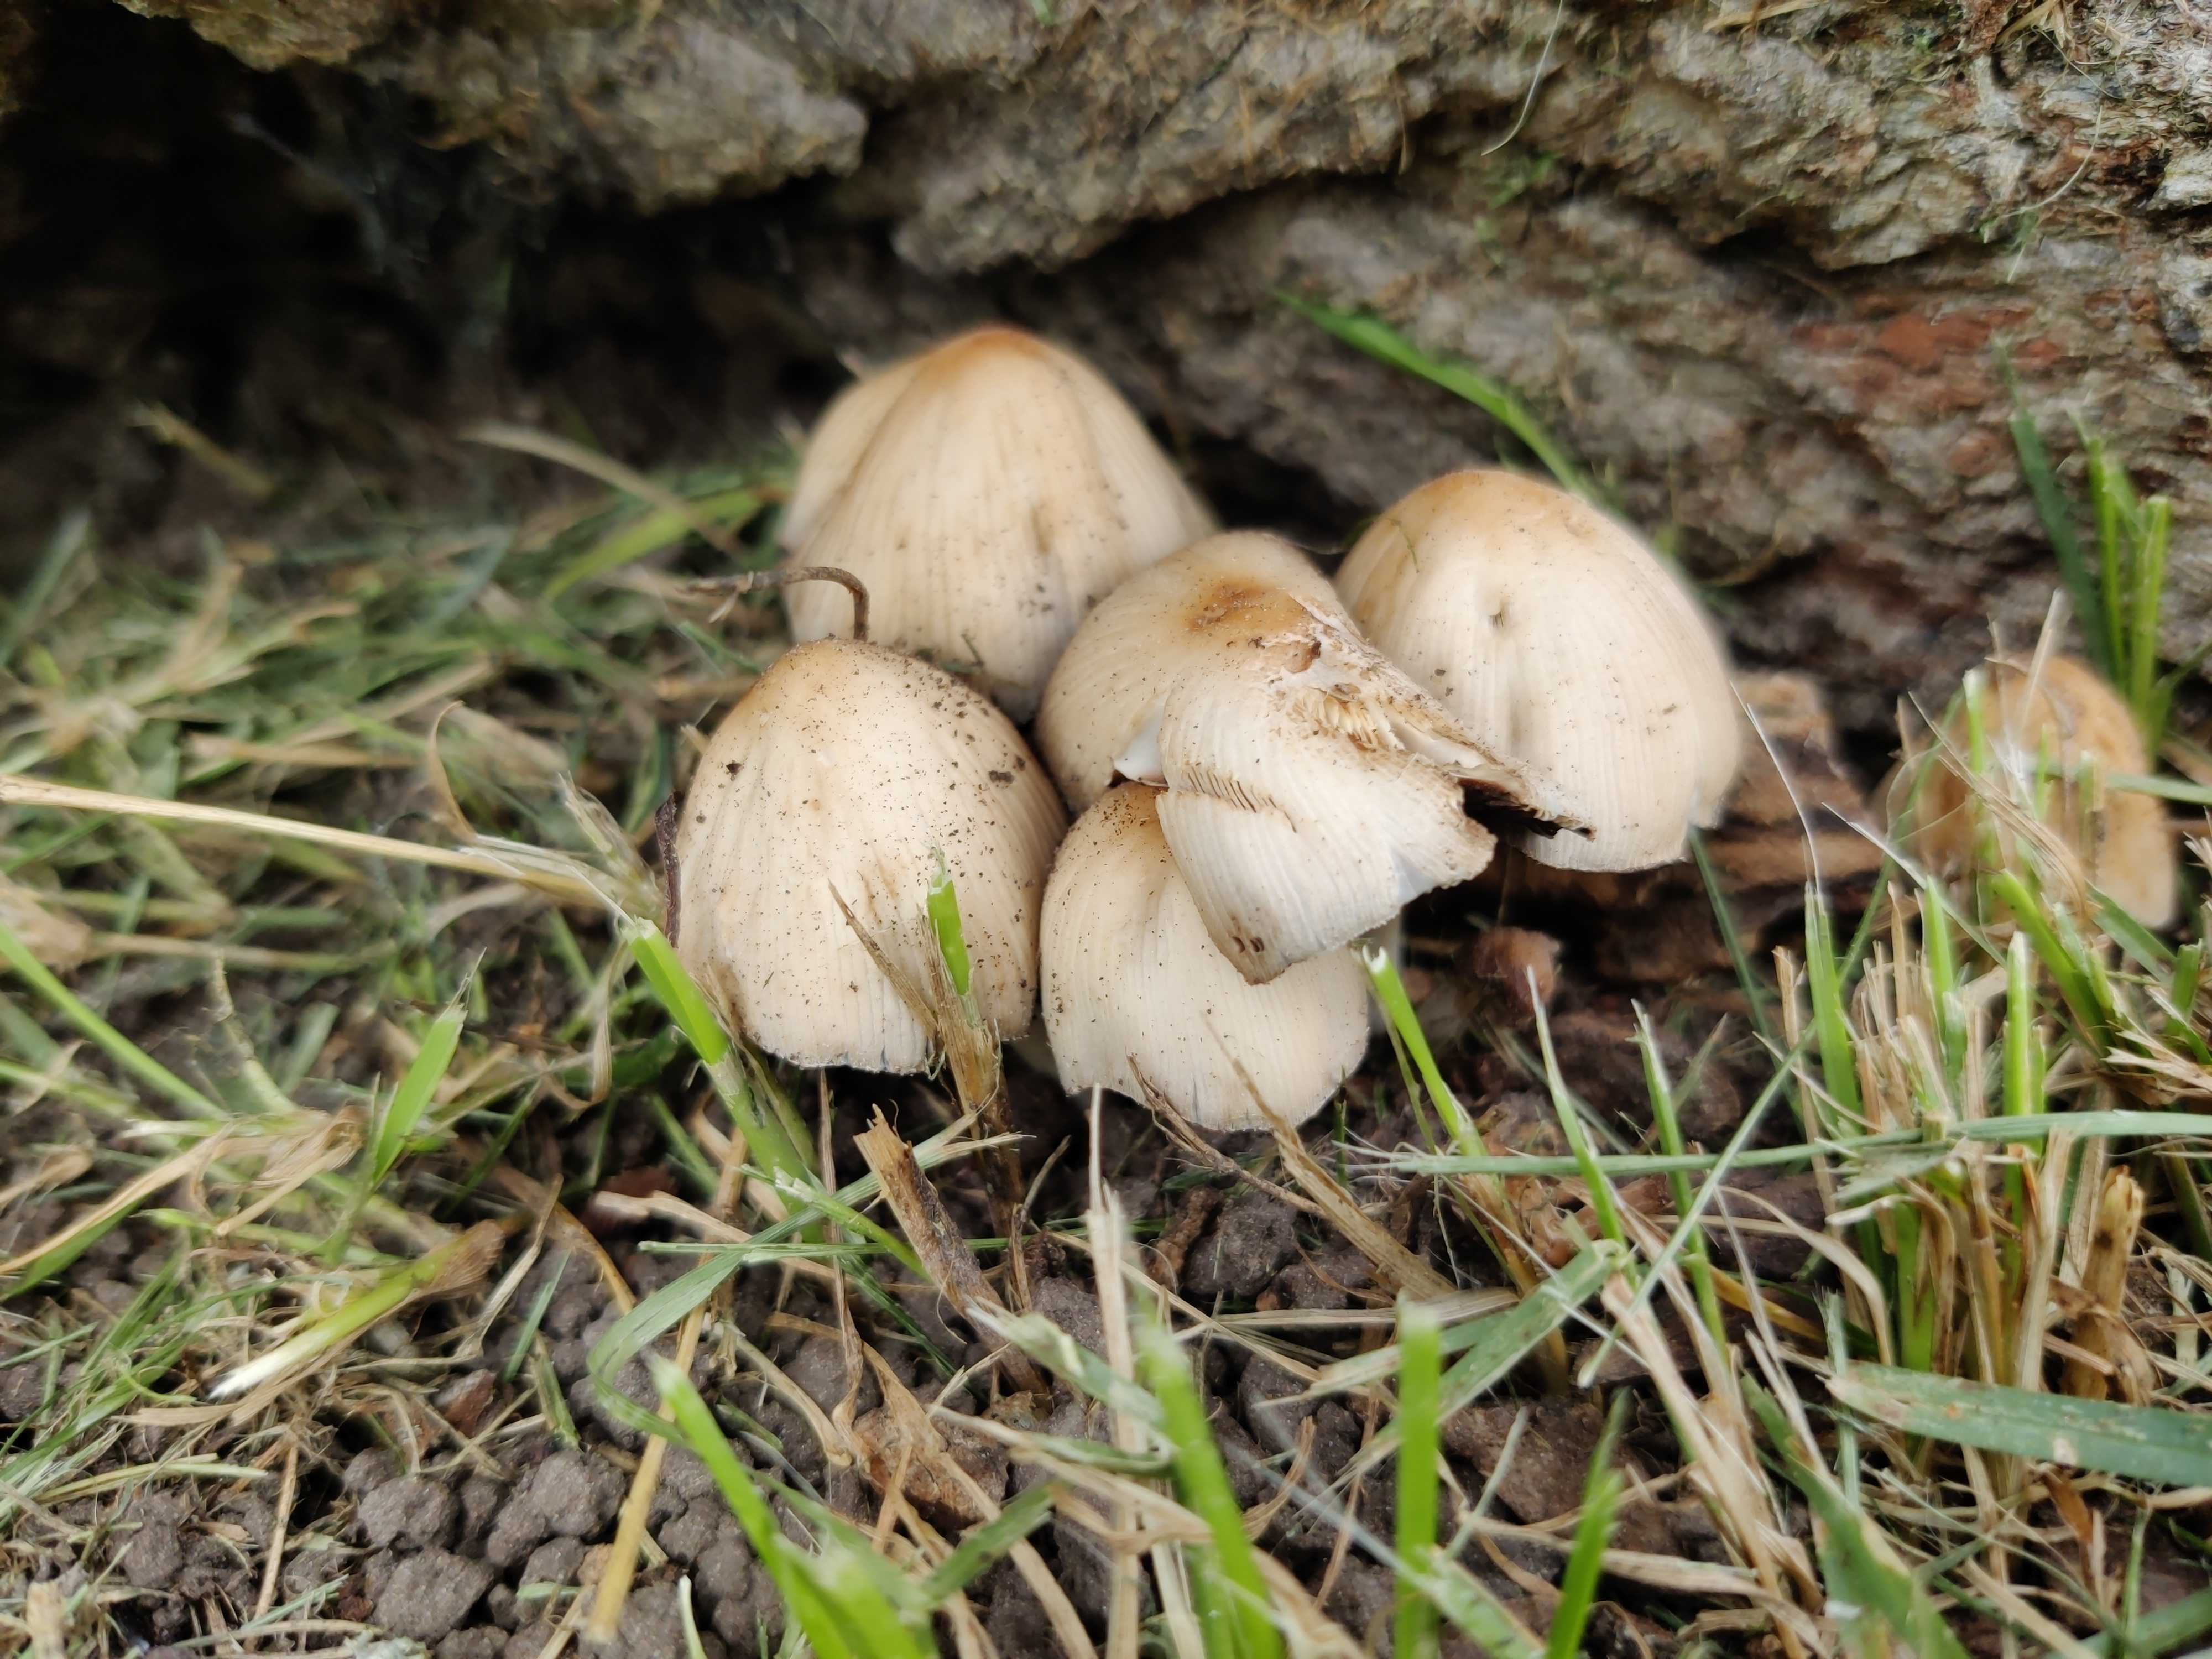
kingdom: Fungi
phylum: Basidiomycota
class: Agaricomycetes
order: Agaricales
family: Psathyrellaceae
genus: Coprinellus
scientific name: Coprinellus
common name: blækhat
